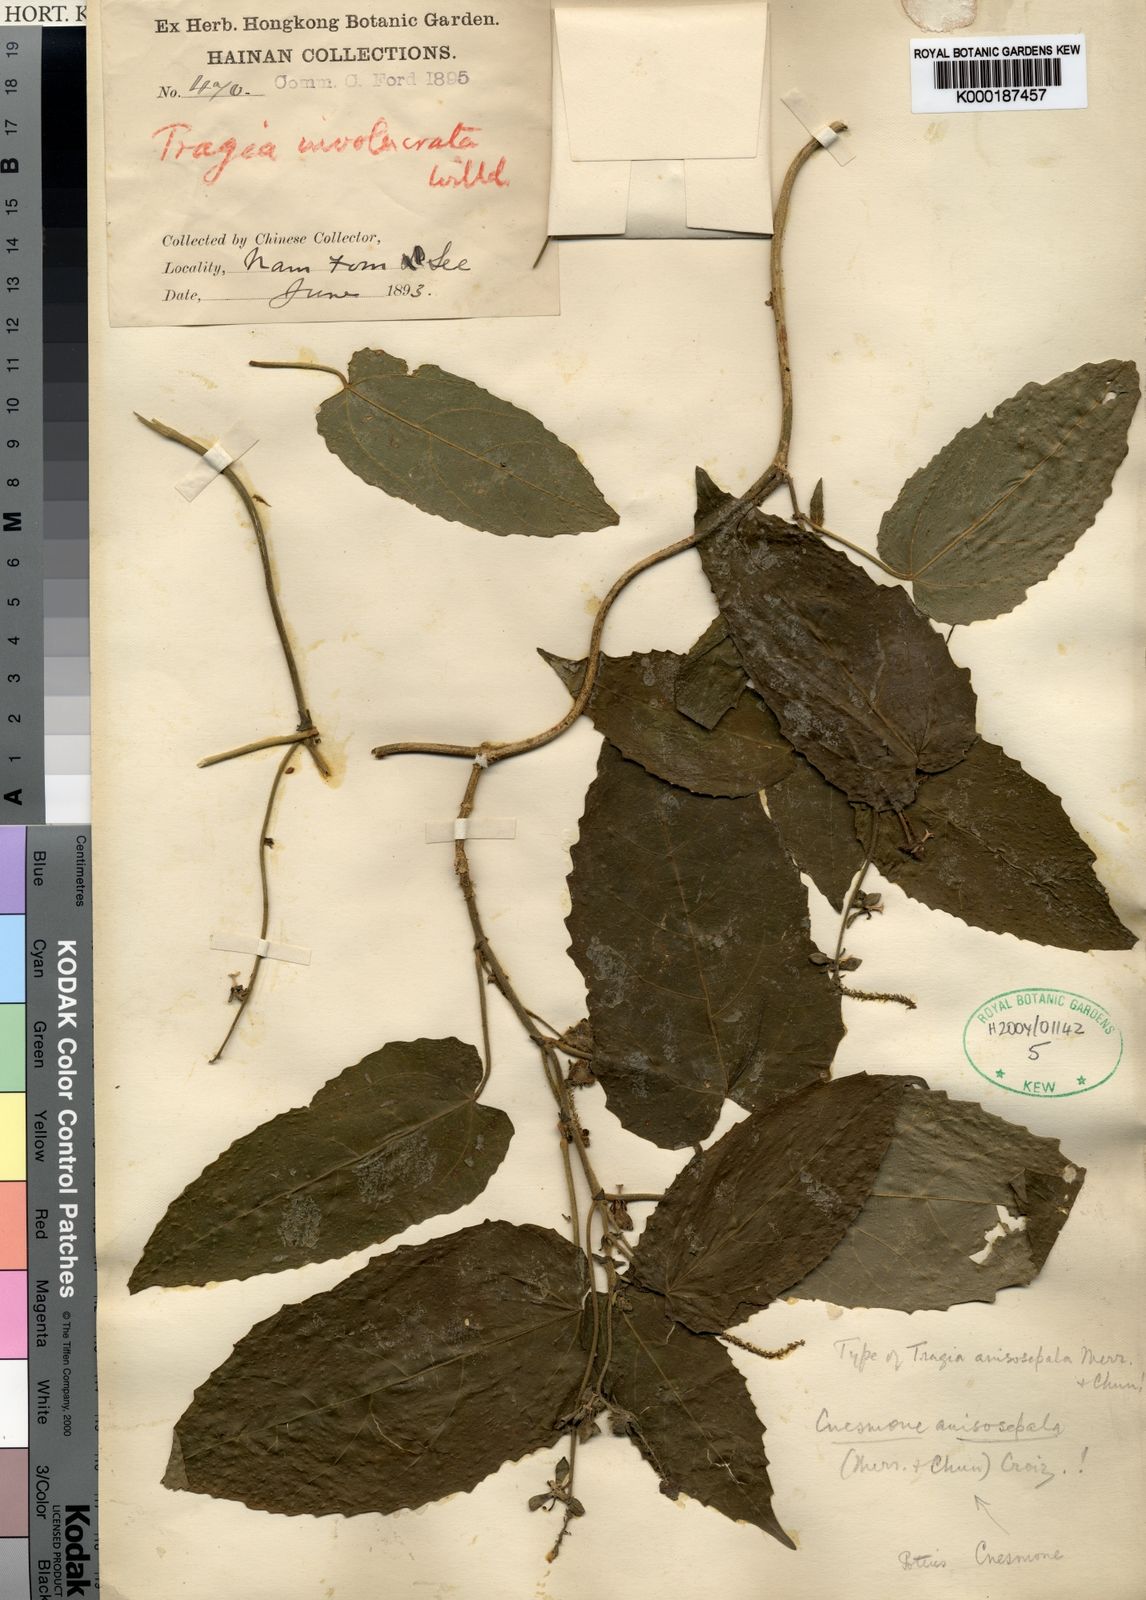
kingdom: Plantae
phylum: Tracheophyta
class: Magnoliopsida
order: Malpighiales
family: Euphorbiaceae
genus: Cnesmone
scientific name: Cnesmone tonkinensis
